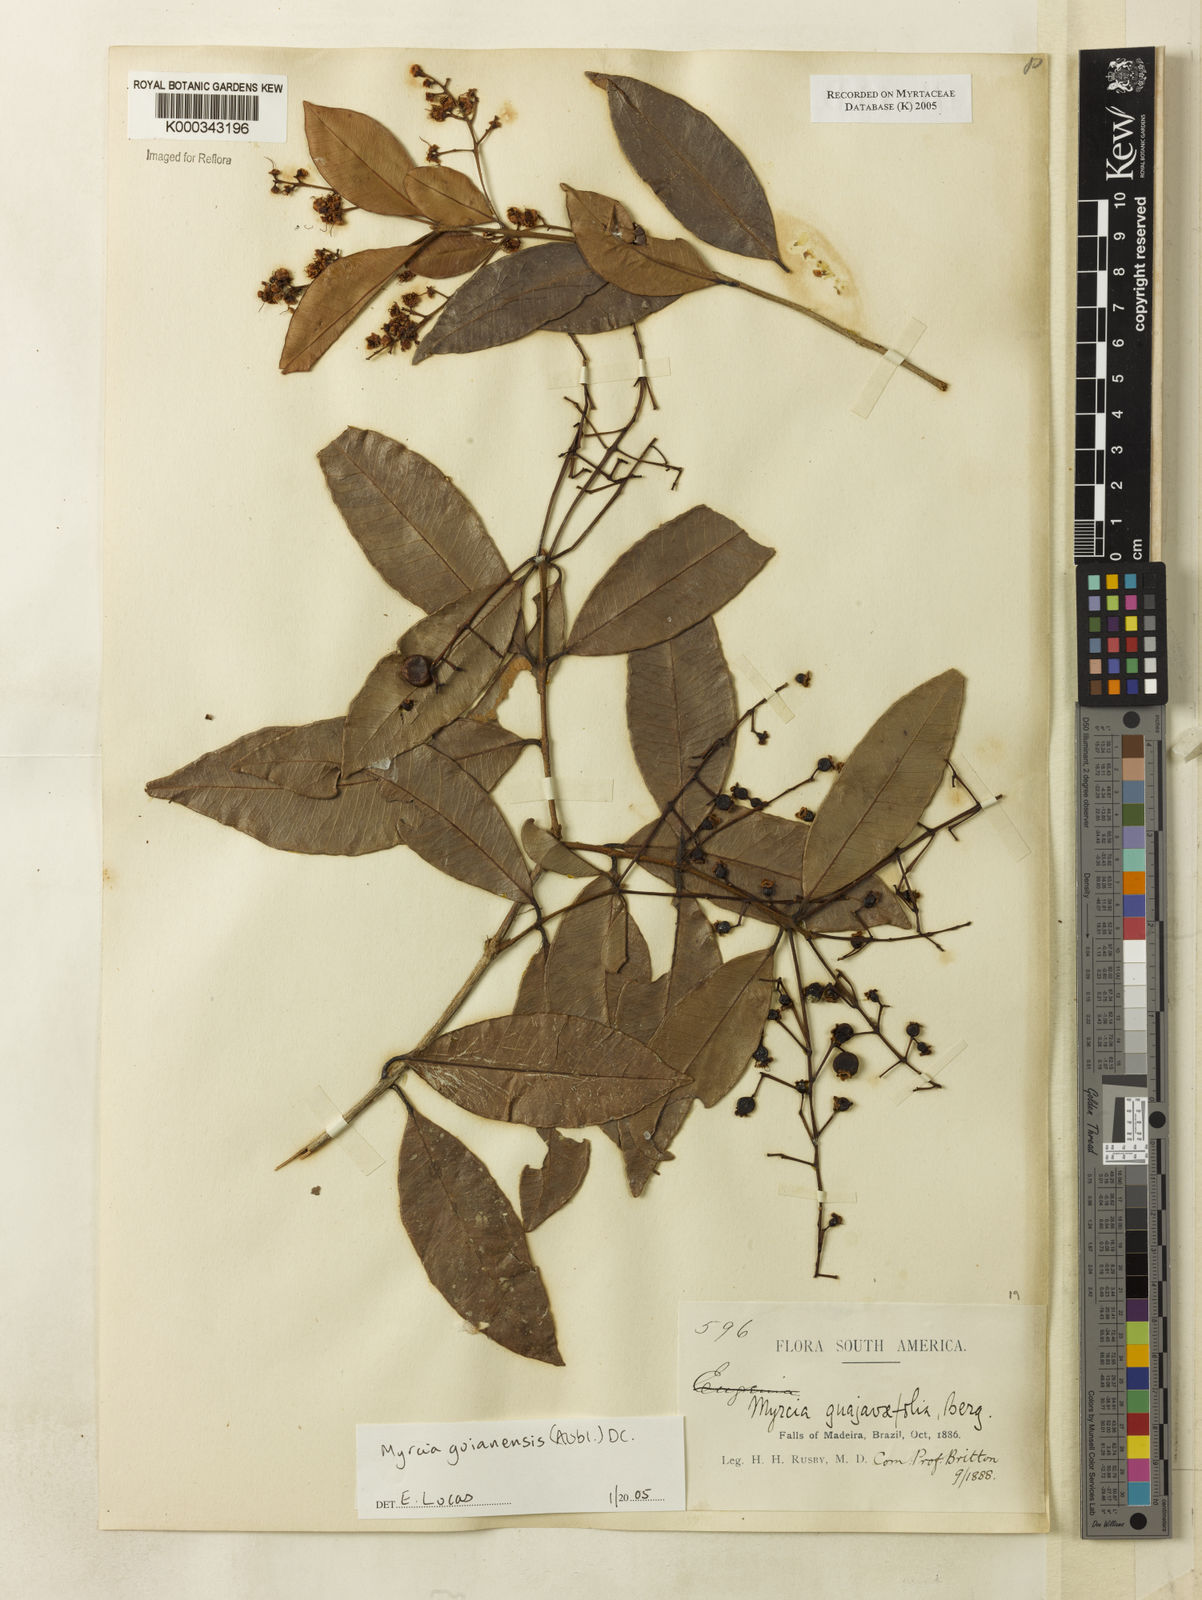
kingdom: Plantae
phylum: Tracheophyta
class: Magnoliopsida
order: Myrtales
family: Myrtaceae
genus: Myrcia
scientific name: Myrcia guianensis
